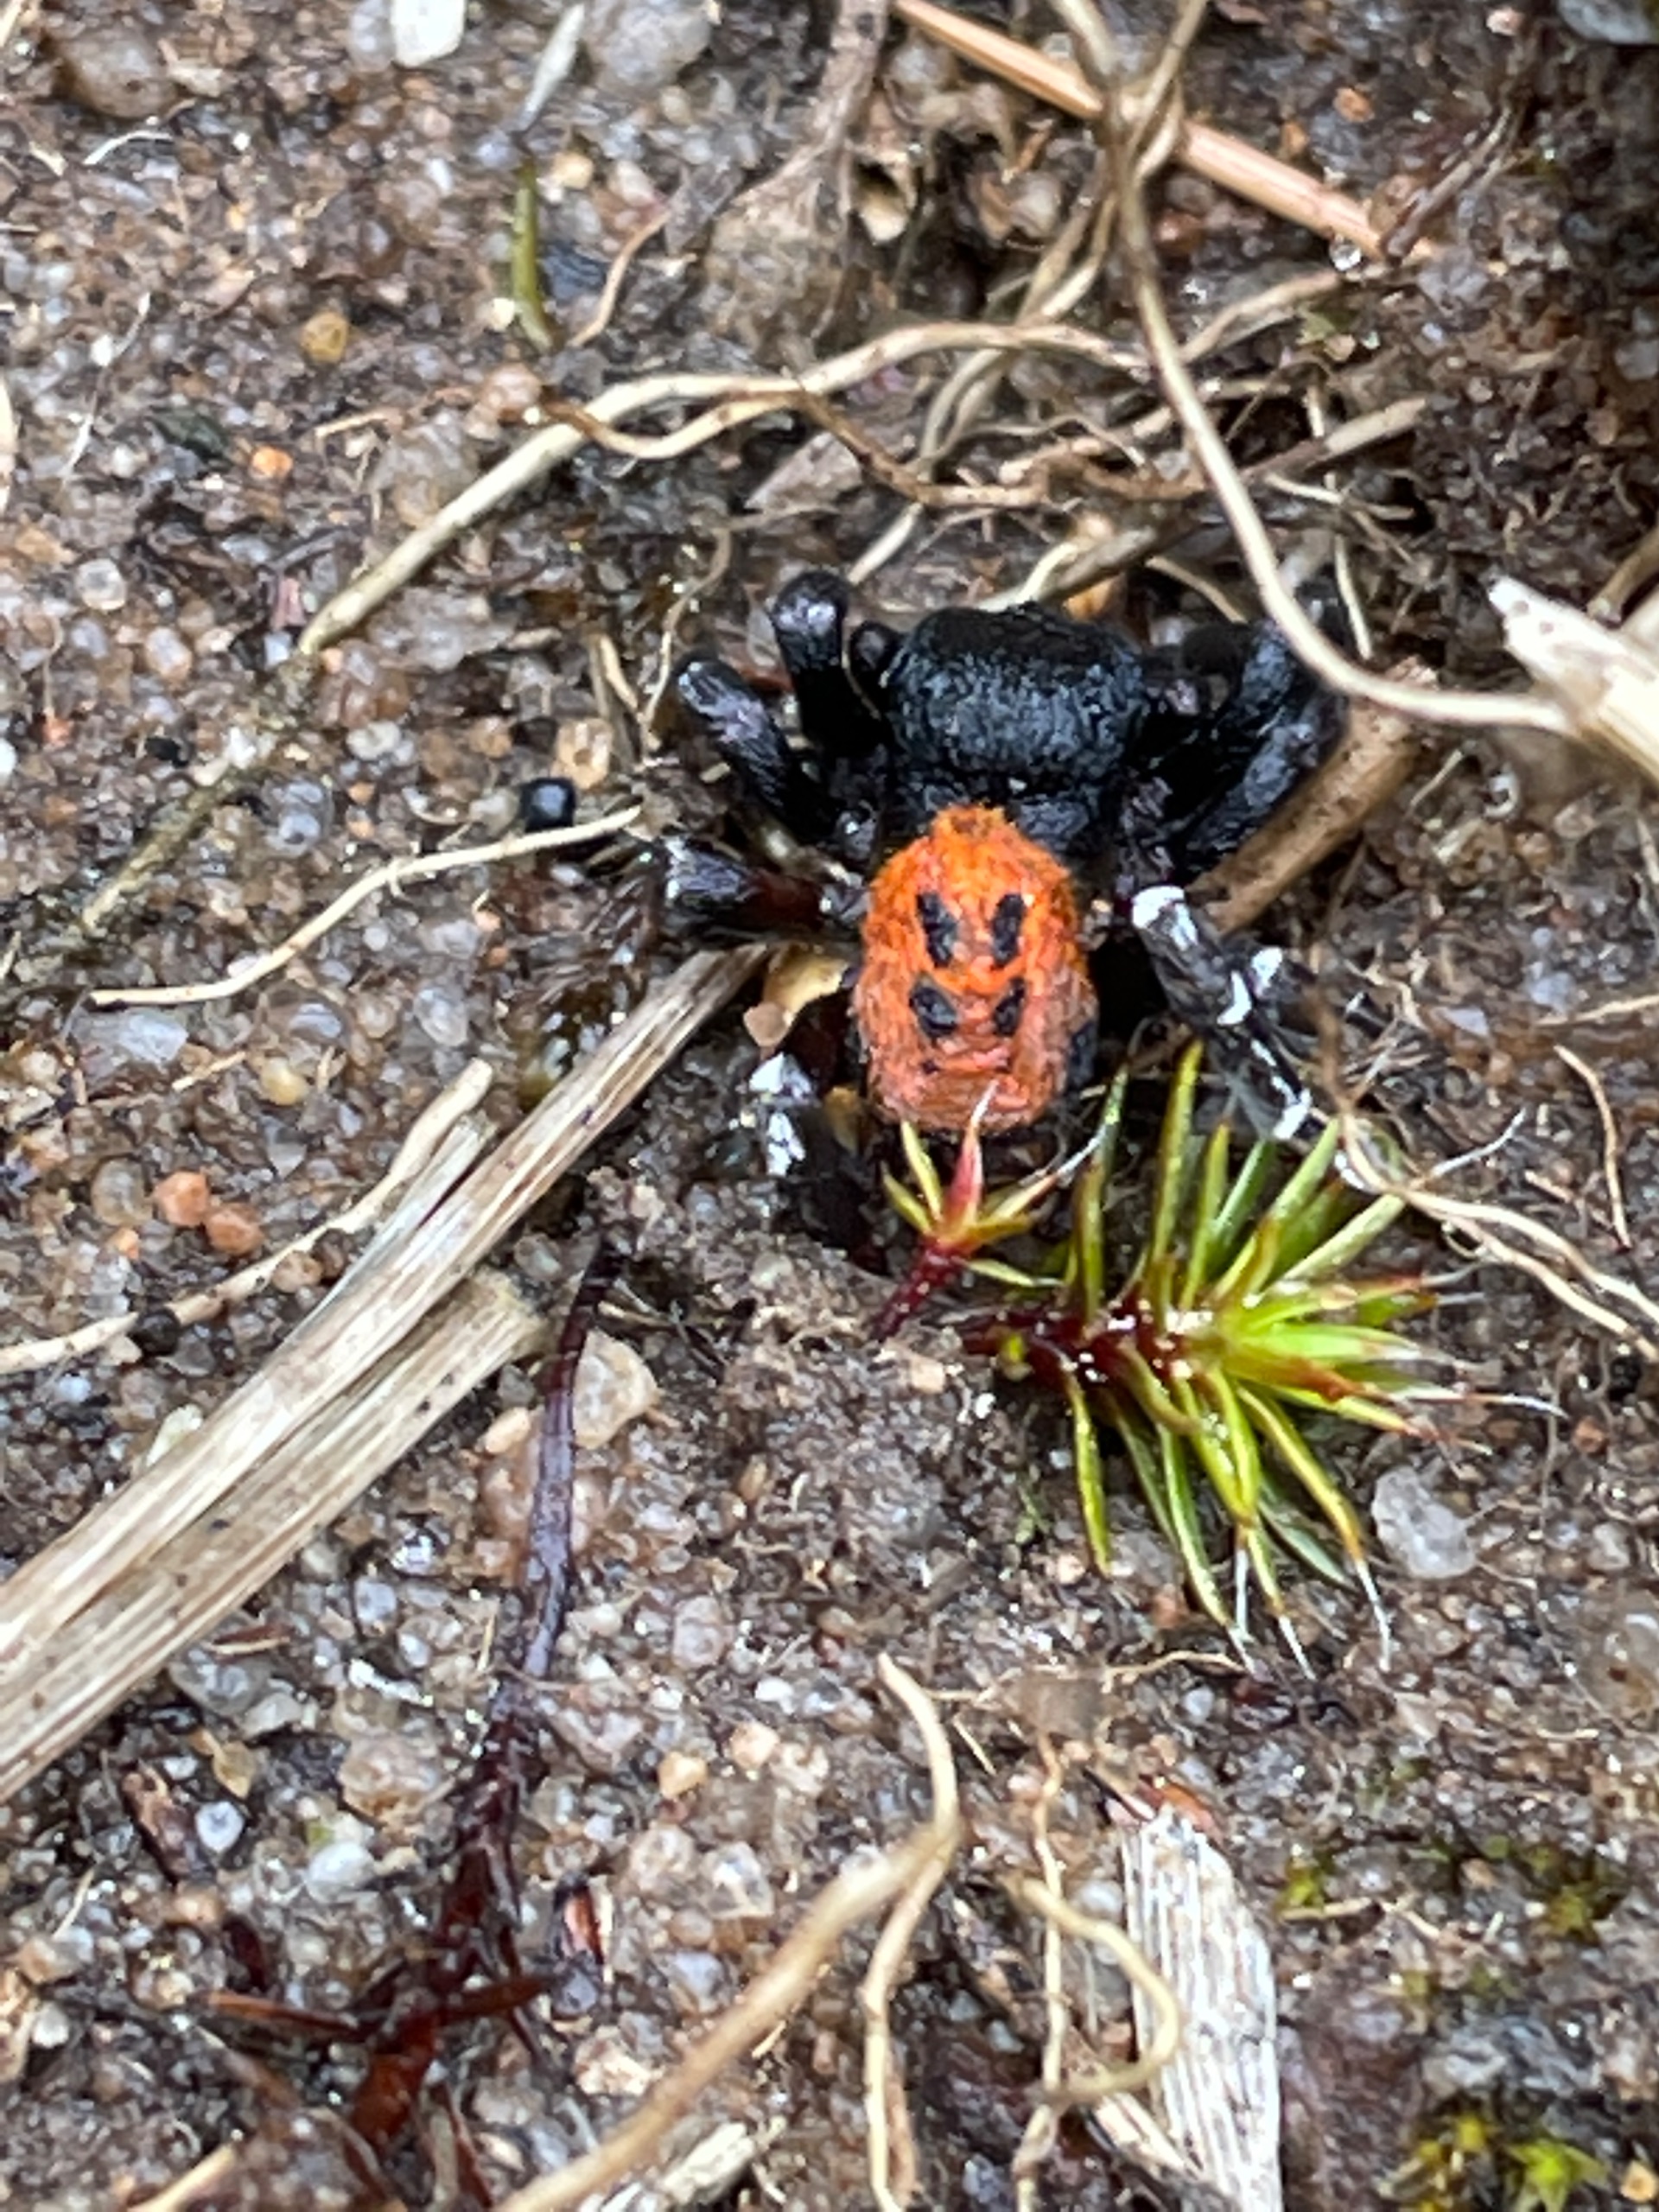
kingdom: Animalia
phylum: Arthropoda
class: Arachnida
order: Araneae
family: Eresidae
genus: Eresus
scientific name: Eresus sandaliatus
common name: Mariehøneedderkop
